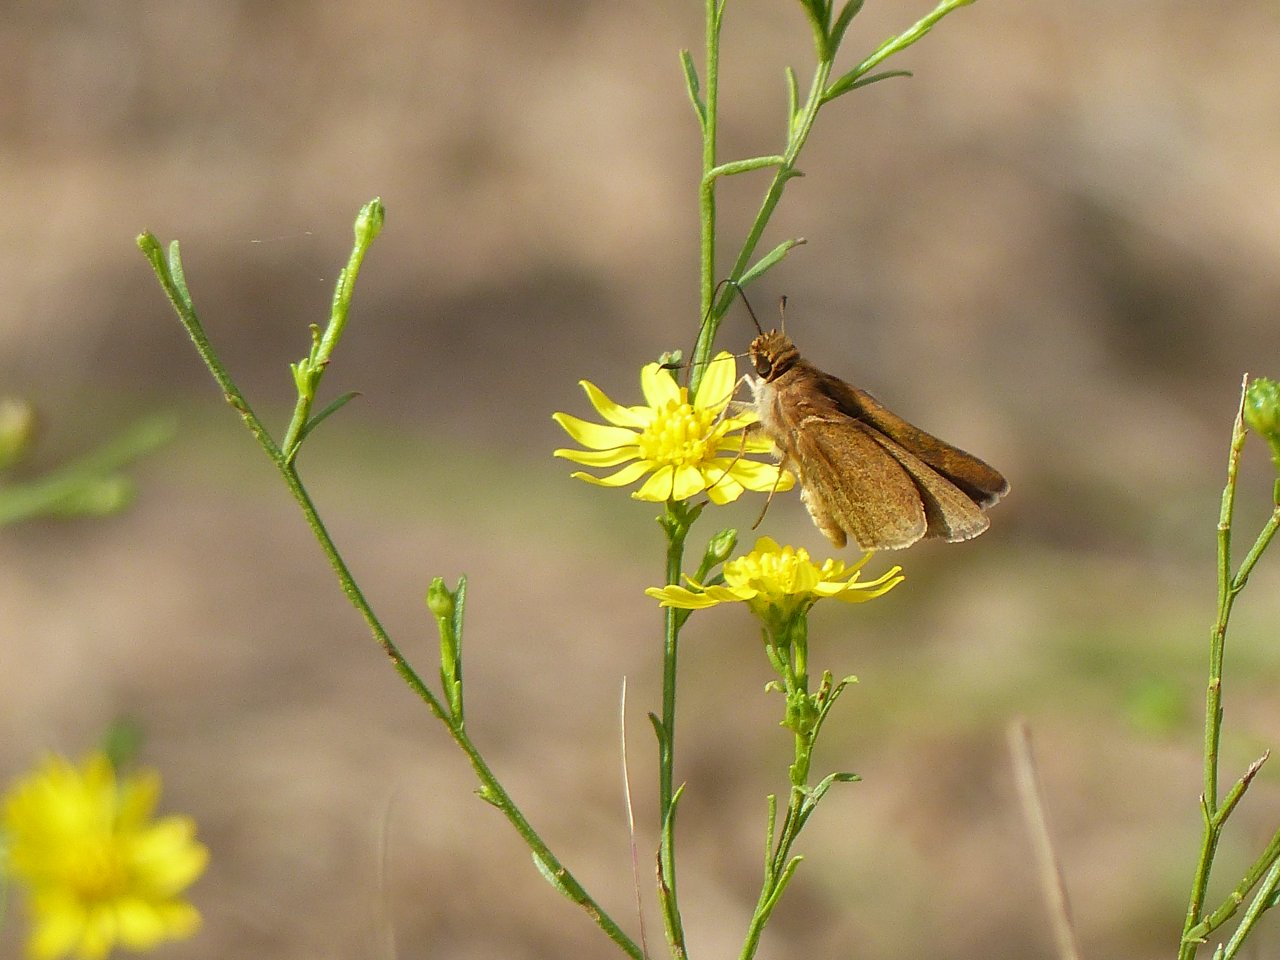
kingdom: Animalia
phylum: Arthropoda
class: Insecta
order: Lepidoptera
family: Hesperiidae
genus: Nastra
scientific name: Nastra julia
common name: Julia's Skipper
